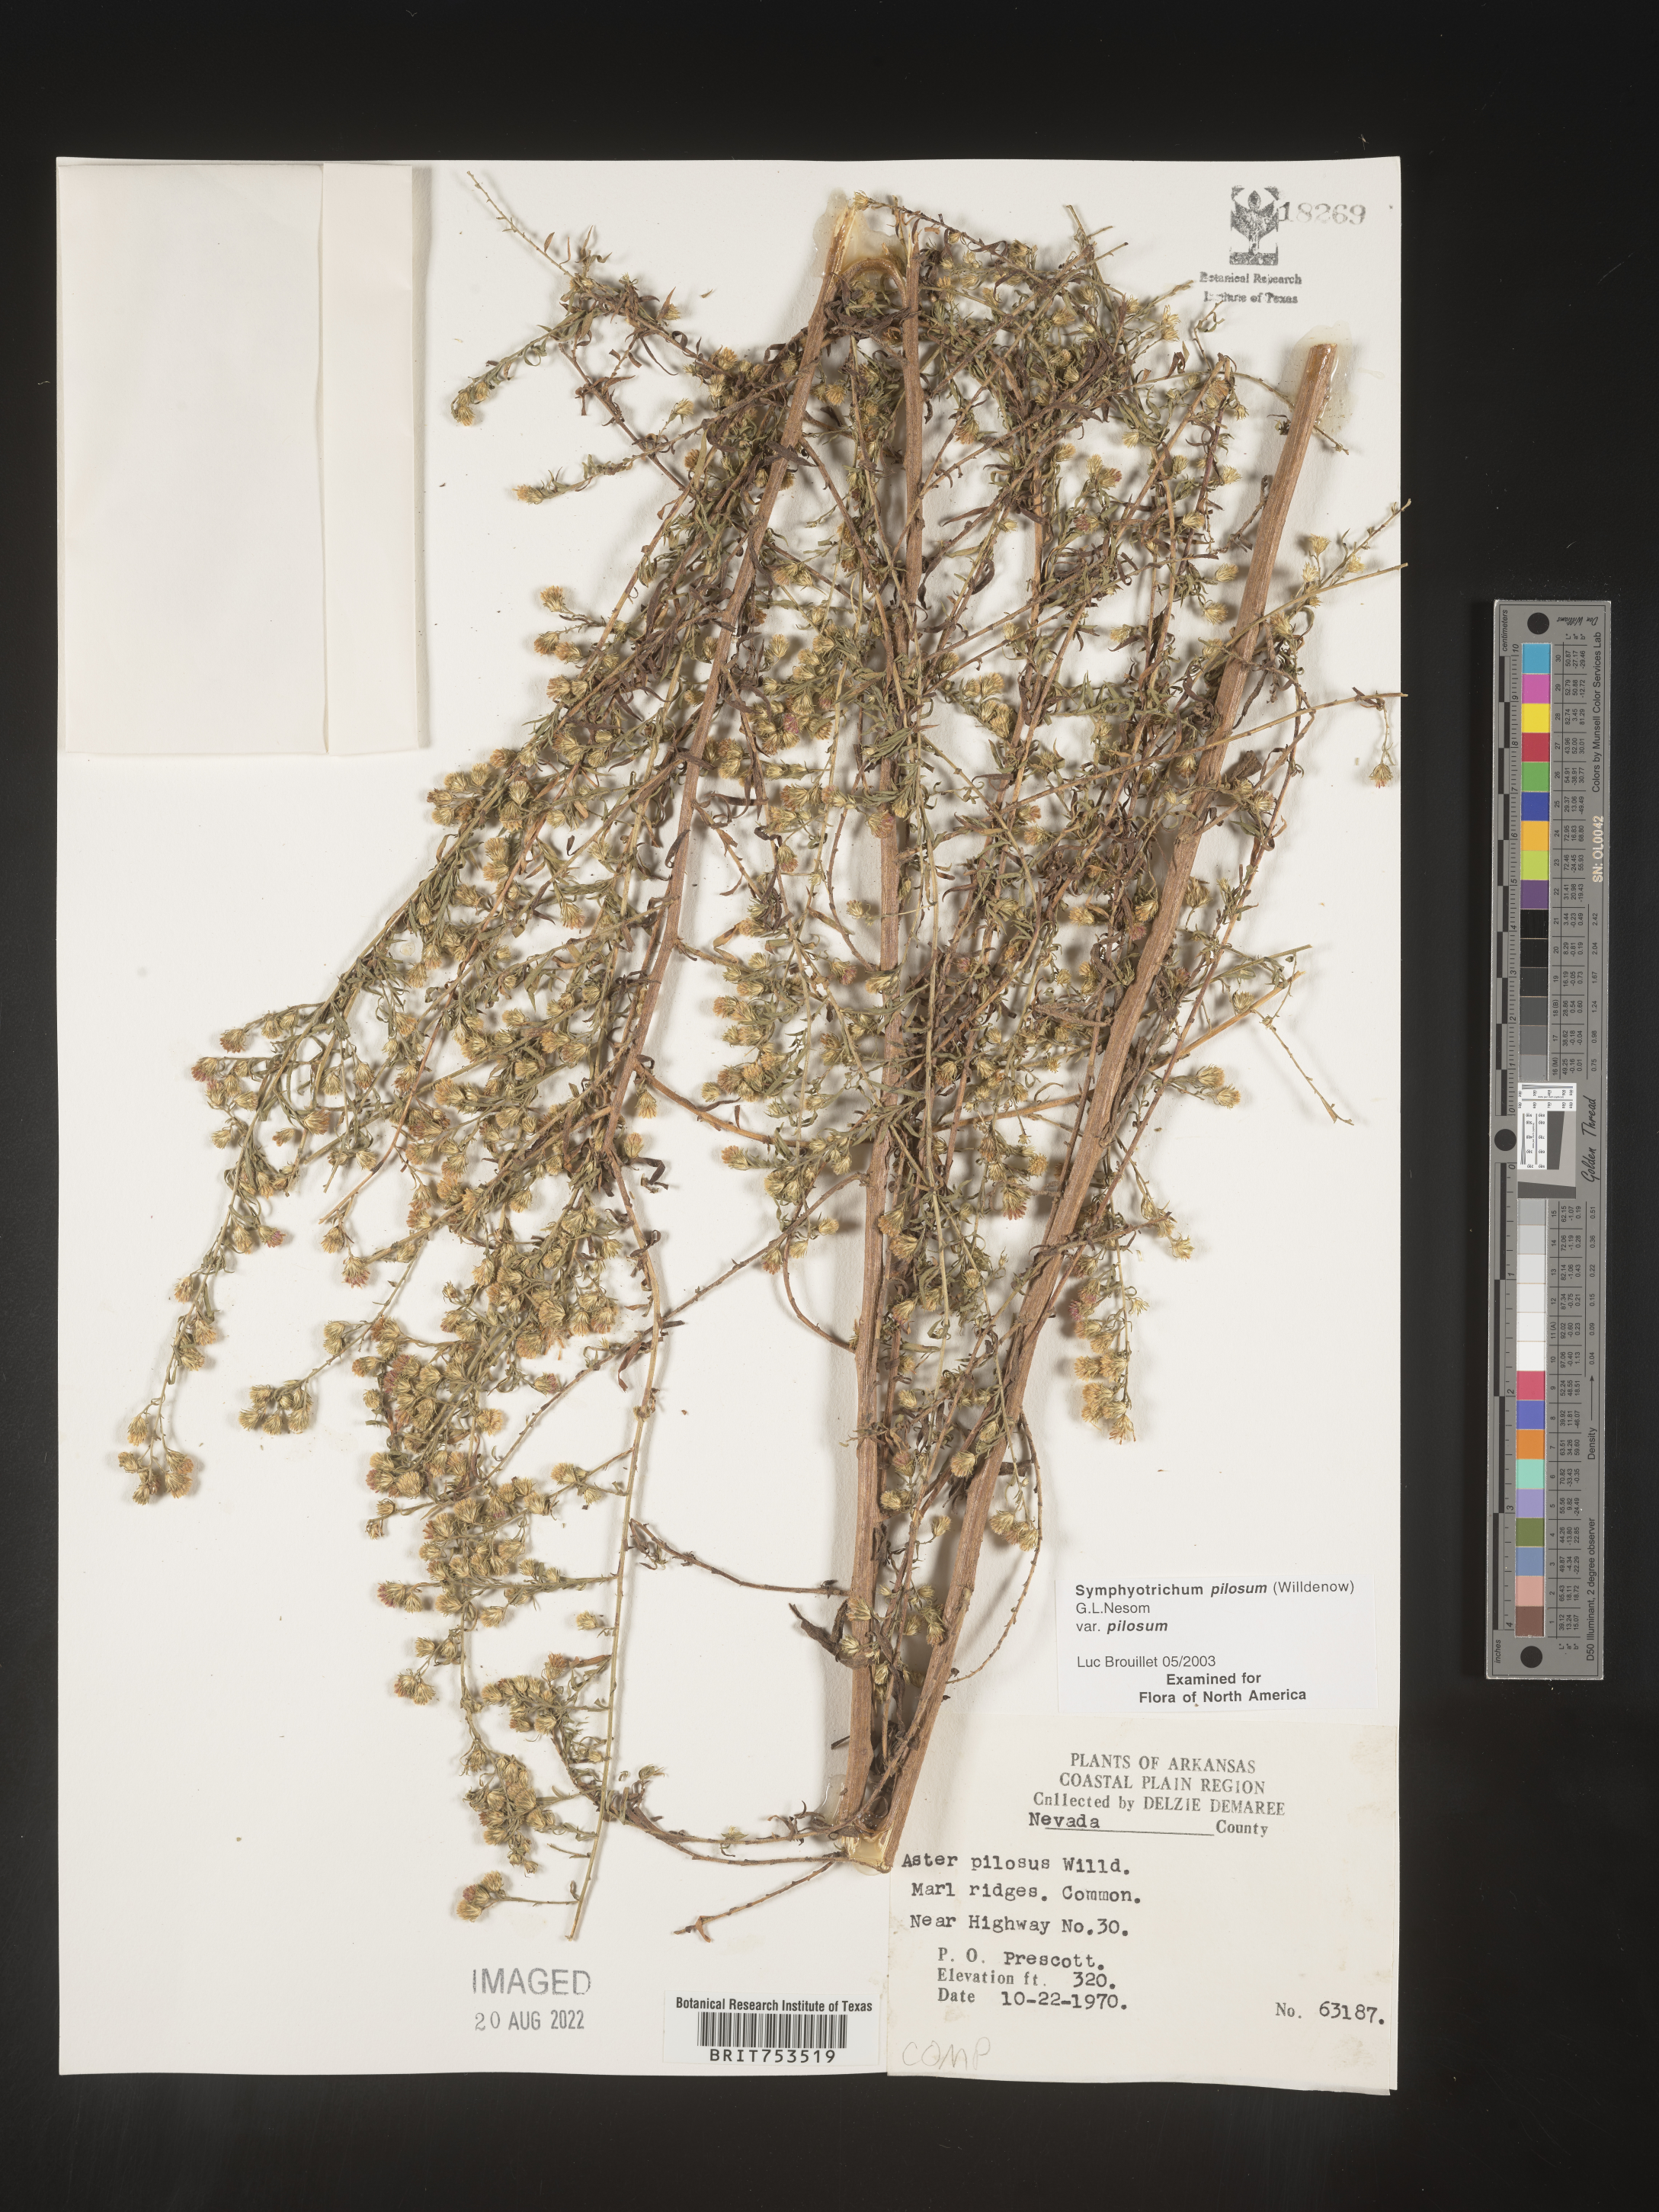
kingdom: Plantae
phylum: Tracheophyta
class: Magnoliopsida
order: Asterales
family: Asteraceae
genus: Symphyotrichum
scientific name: Symphyotrichum pilosum
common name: Awl aster
